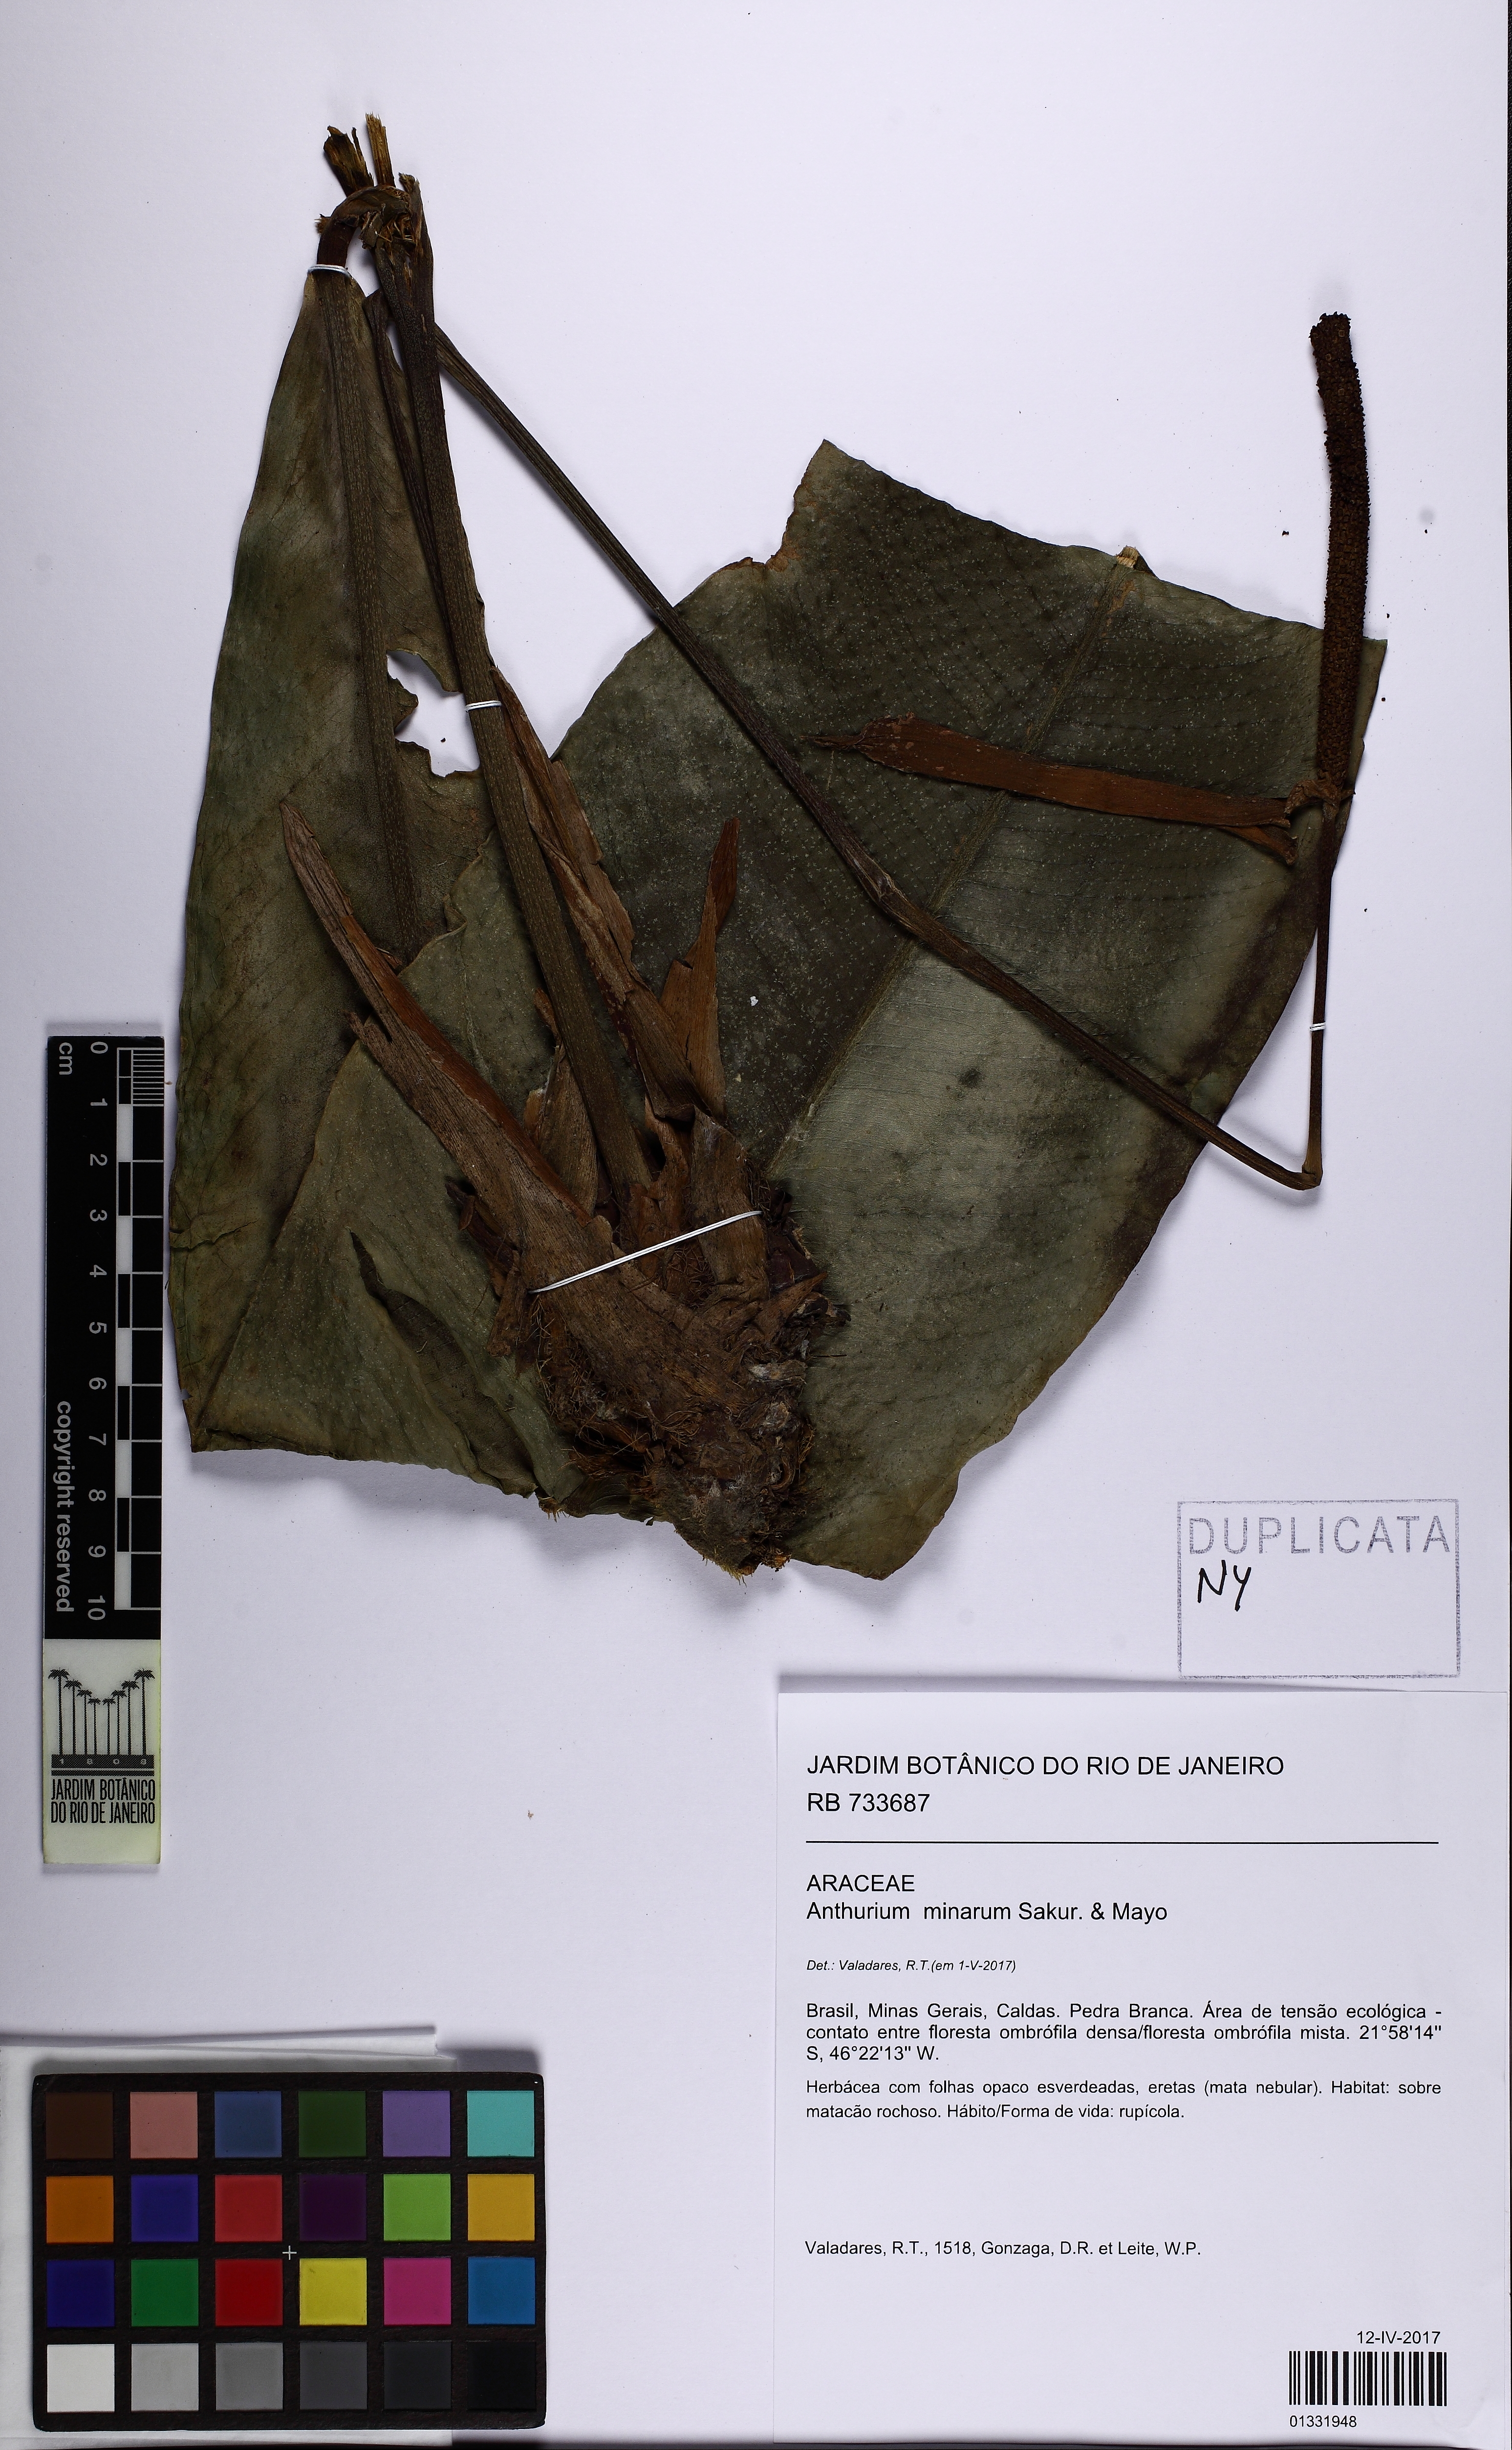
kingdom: Plantae
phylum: Tracheophyta
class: Liliopsida
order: Alismatales
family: Araceae
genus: Anthurium
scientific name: Anthurium minarum
